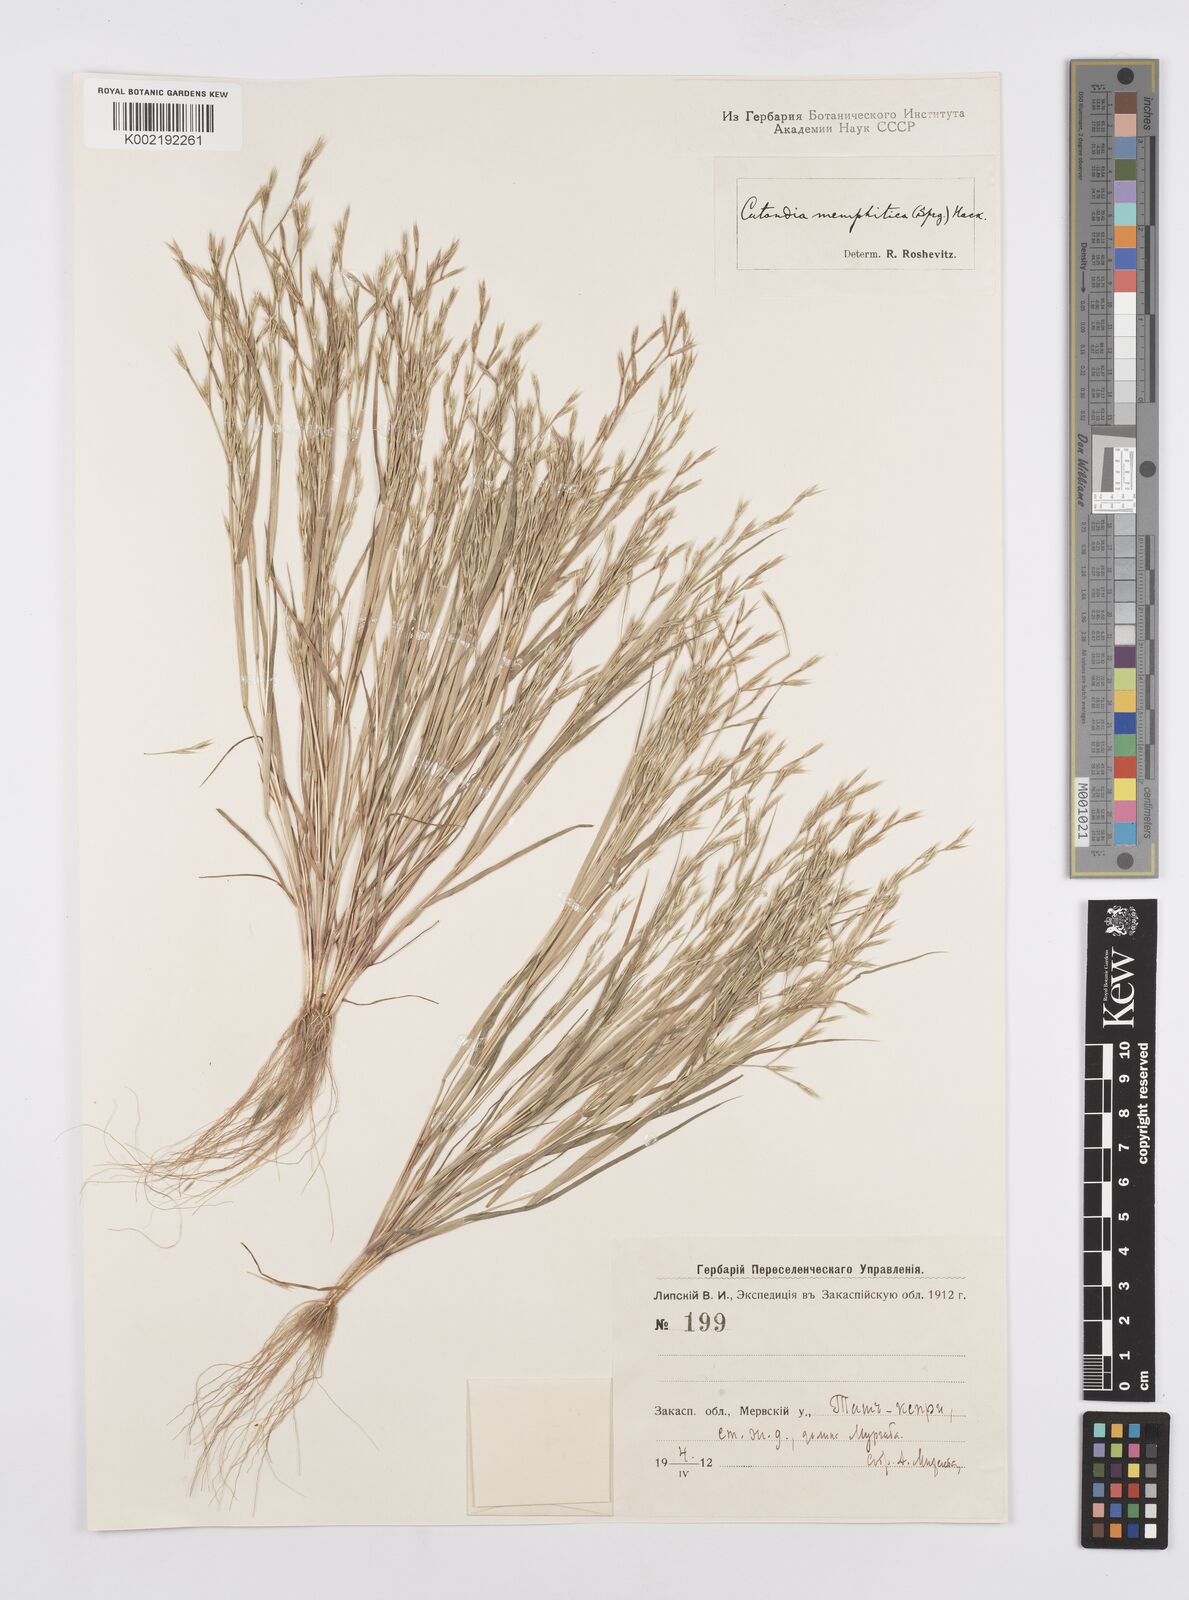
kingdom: Plantae
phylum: Tracheophyta
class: Liliopsida
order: Poales
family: Poaceae
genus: Cutandia
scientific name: Cutandia memphitica
